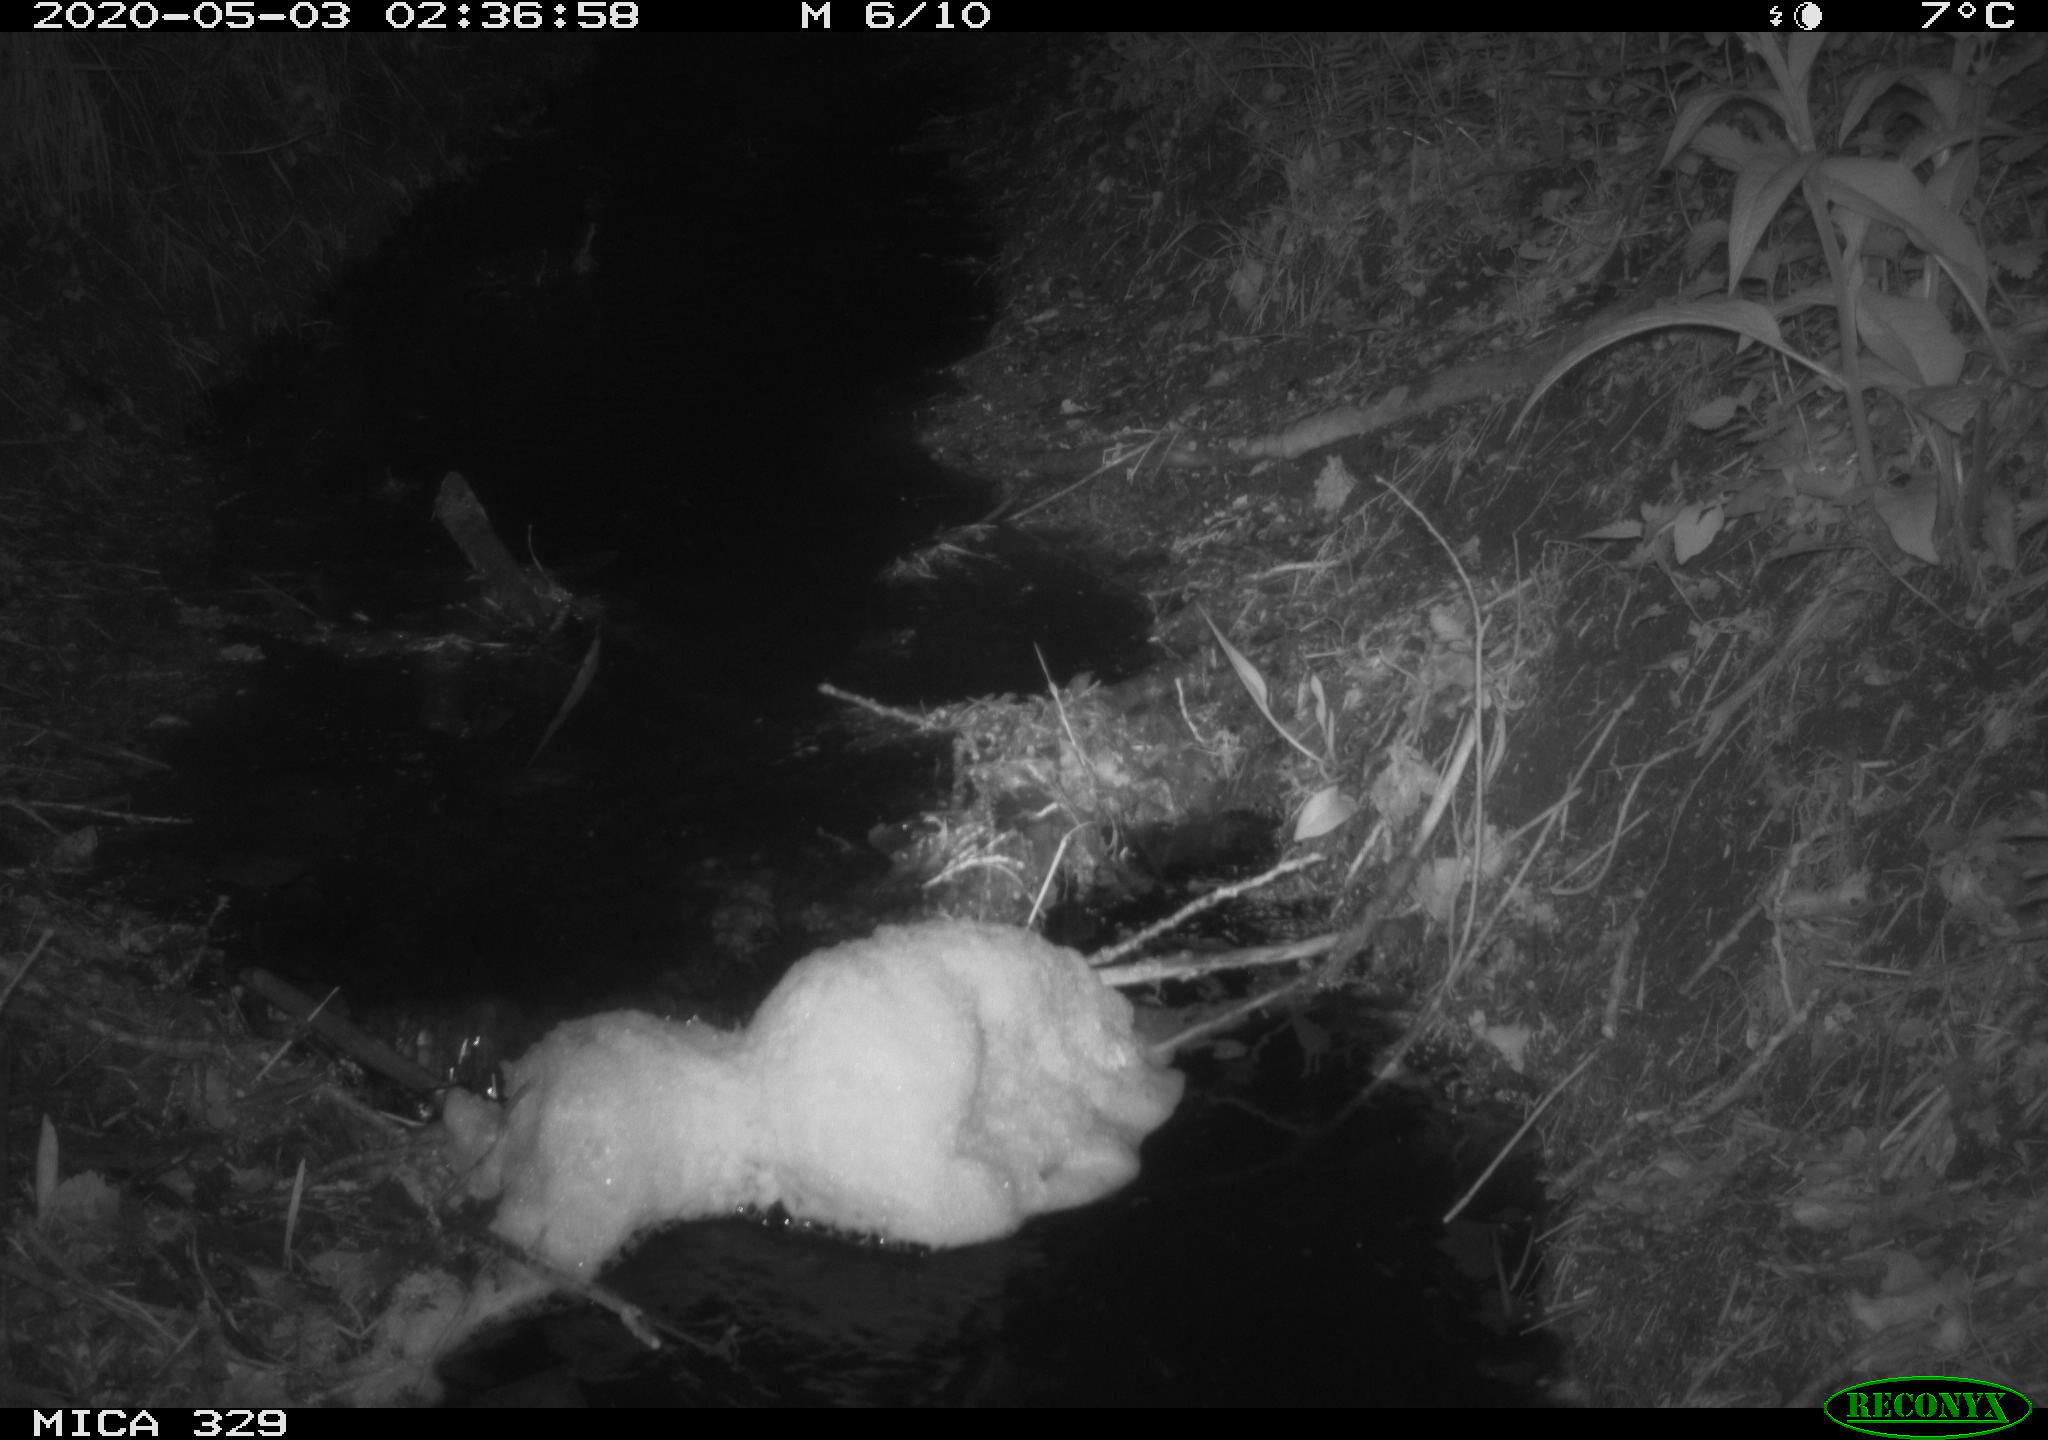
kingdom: Animalia
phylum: Chordata
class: Mammalia
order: Rodentia
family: Cricetidae
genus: Ondatra
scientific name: Ondatra zibethicus
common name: Muskrat
